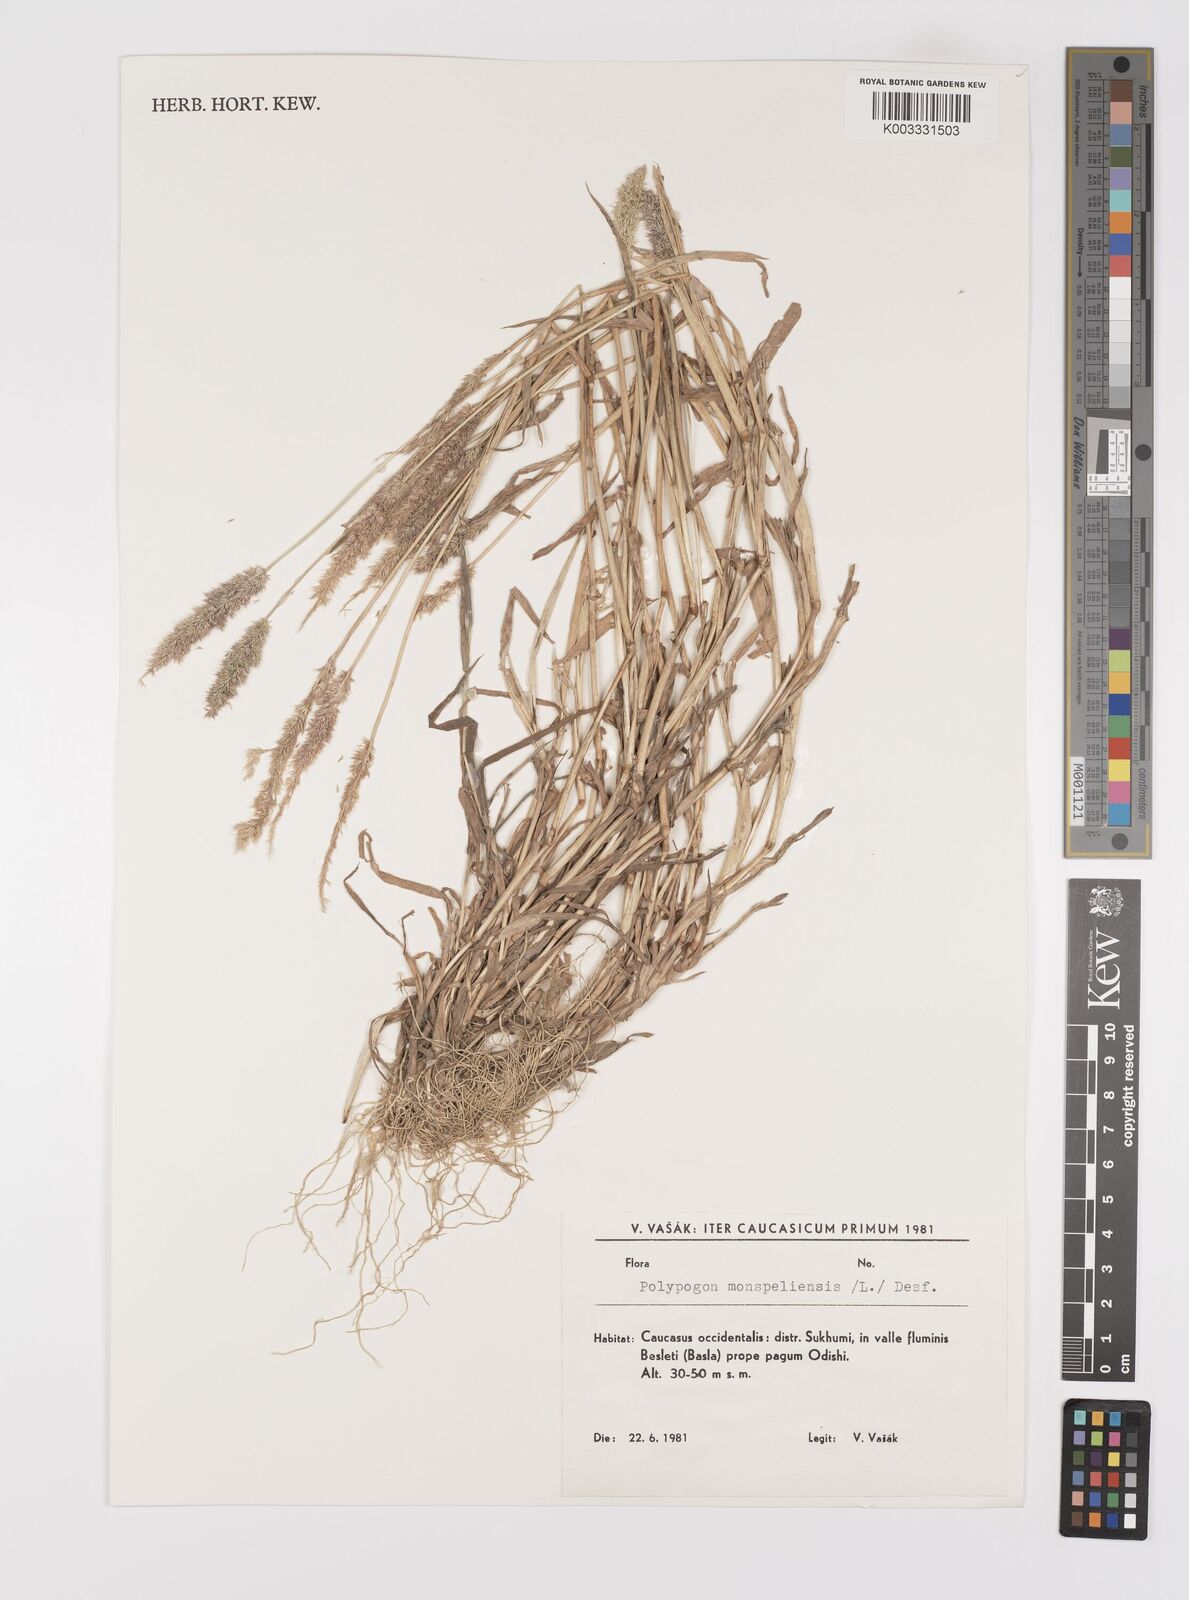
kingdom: Plantae
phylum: Tracheophyta
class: Liliopsida
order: Poales
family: Poaceae
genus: Polypogon
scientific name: Polypogon monspeliensis
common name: Annual rabbitsfoot grass
